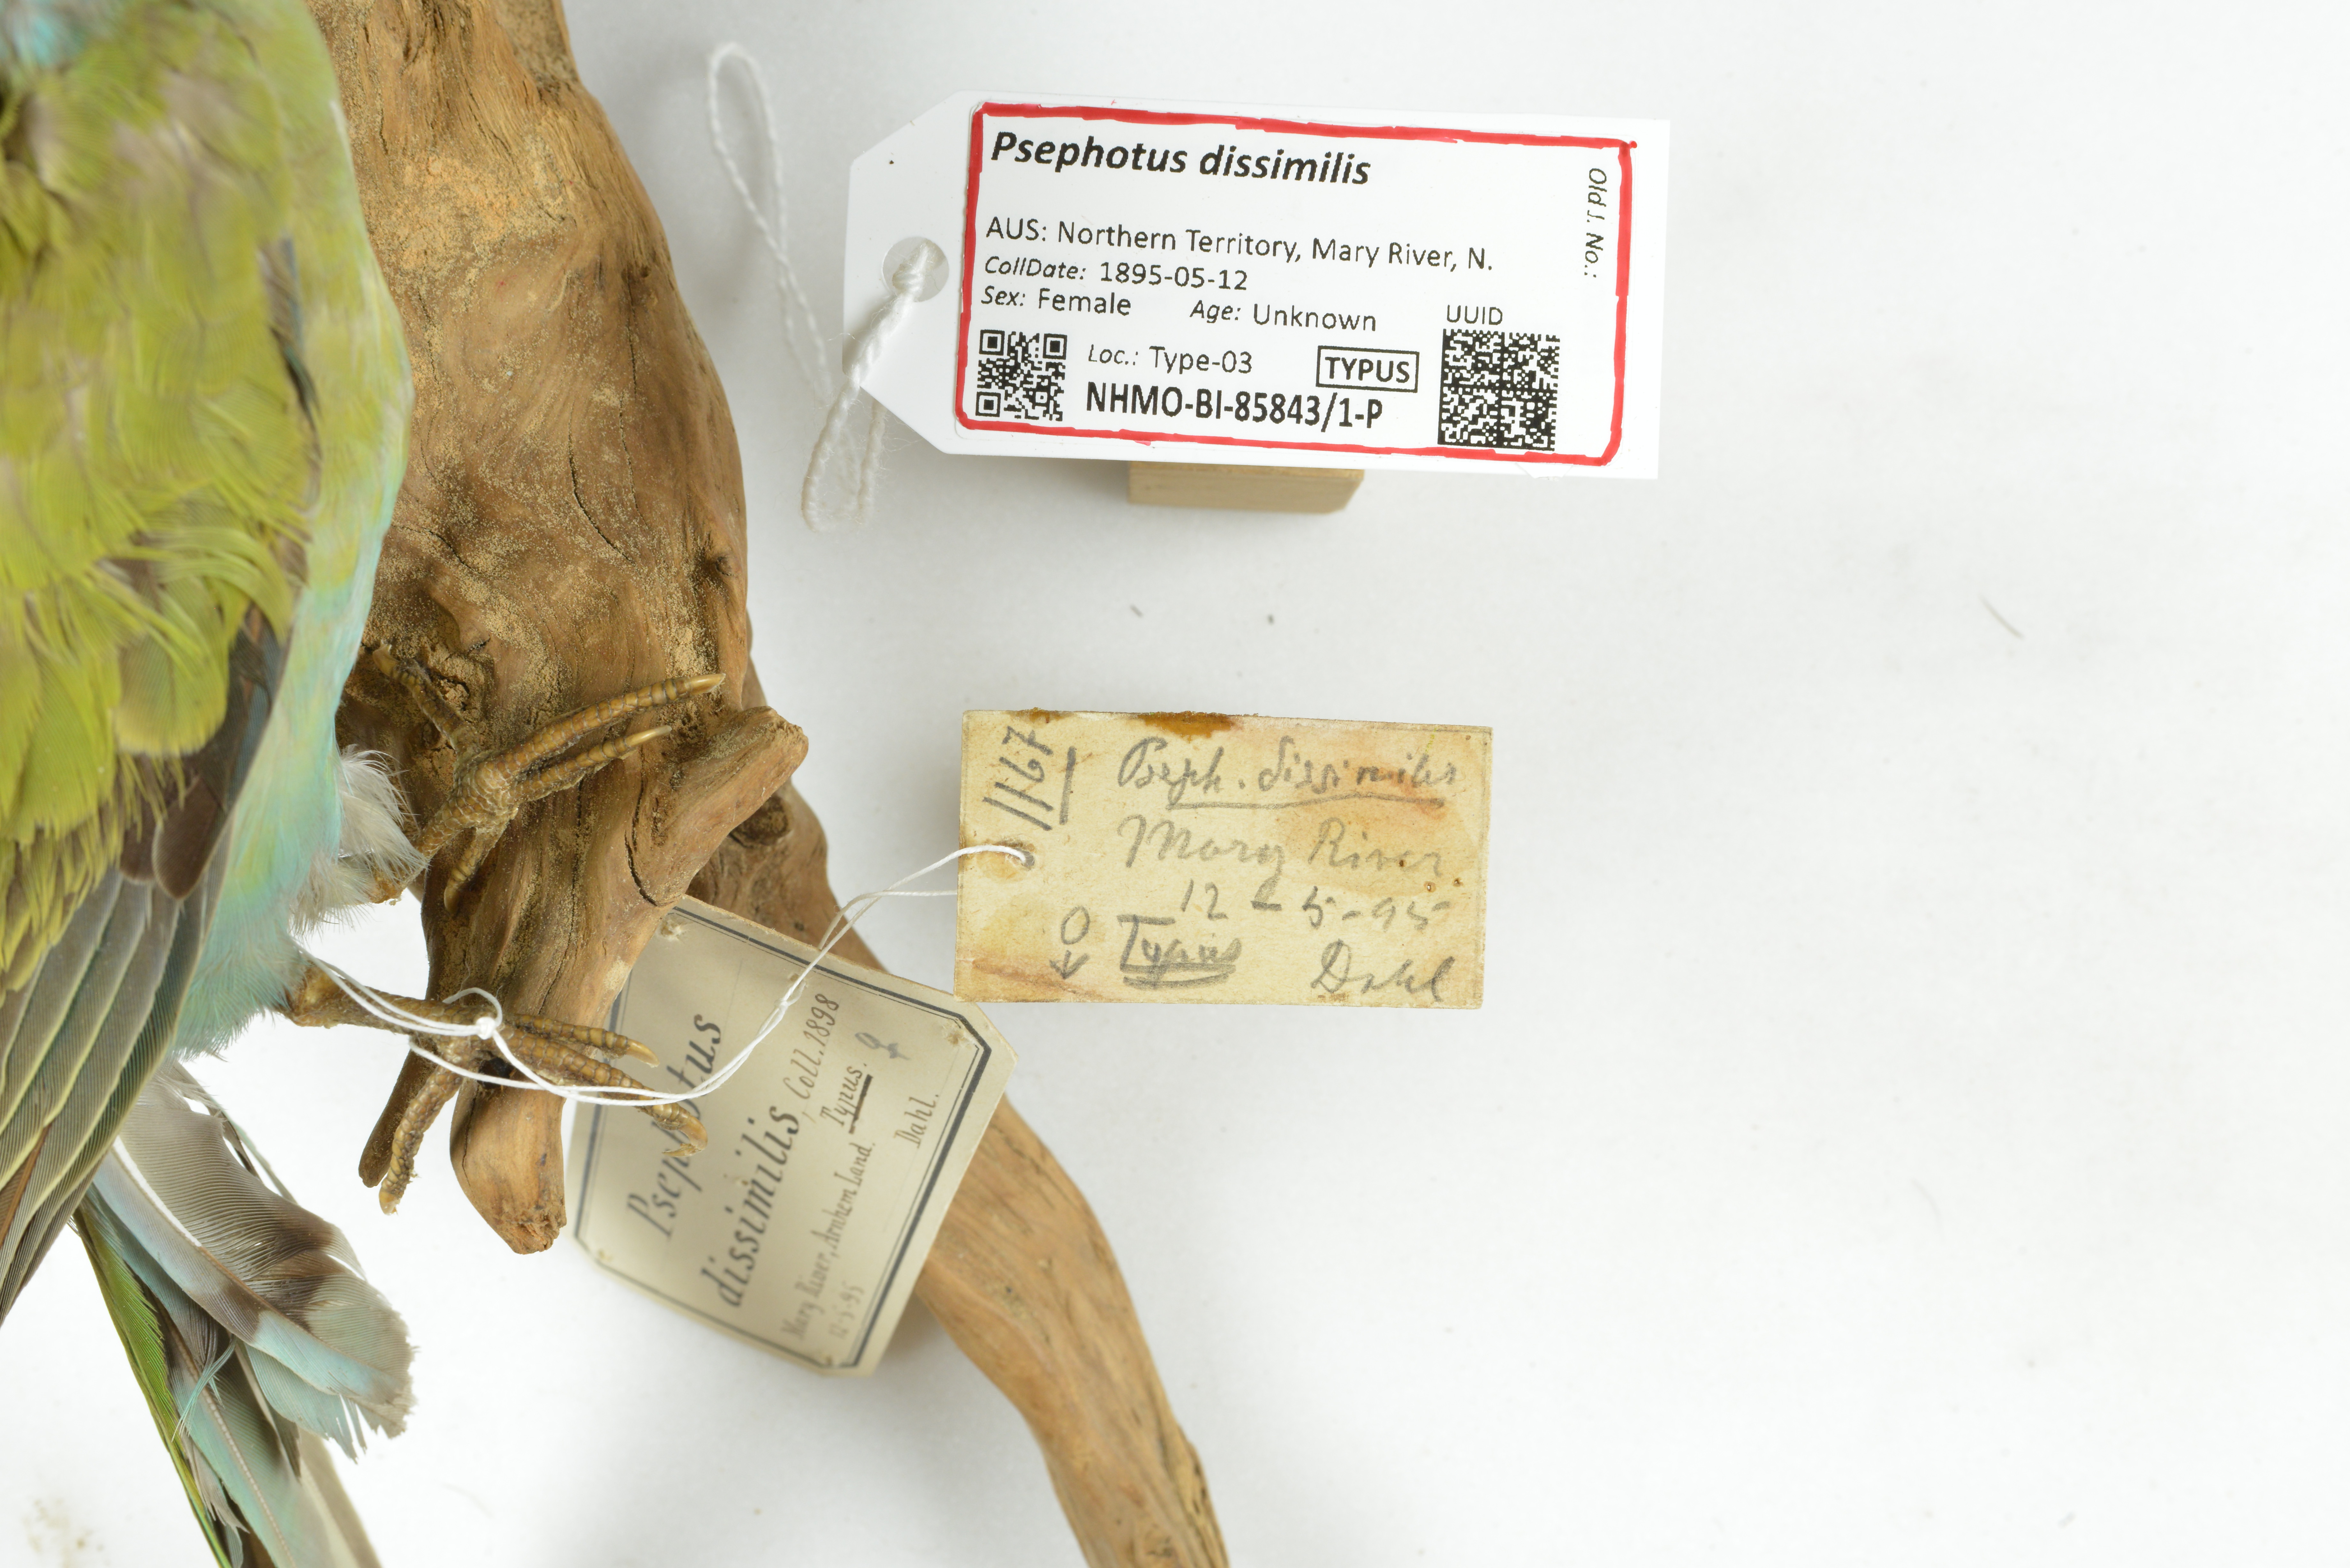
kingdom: Animalia
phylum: Chordata
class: Aves
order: Psittaciformes
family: Psittaculidae
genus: Psephotellus
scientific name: Psephotellus dissimilis
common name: Hooded parrot
